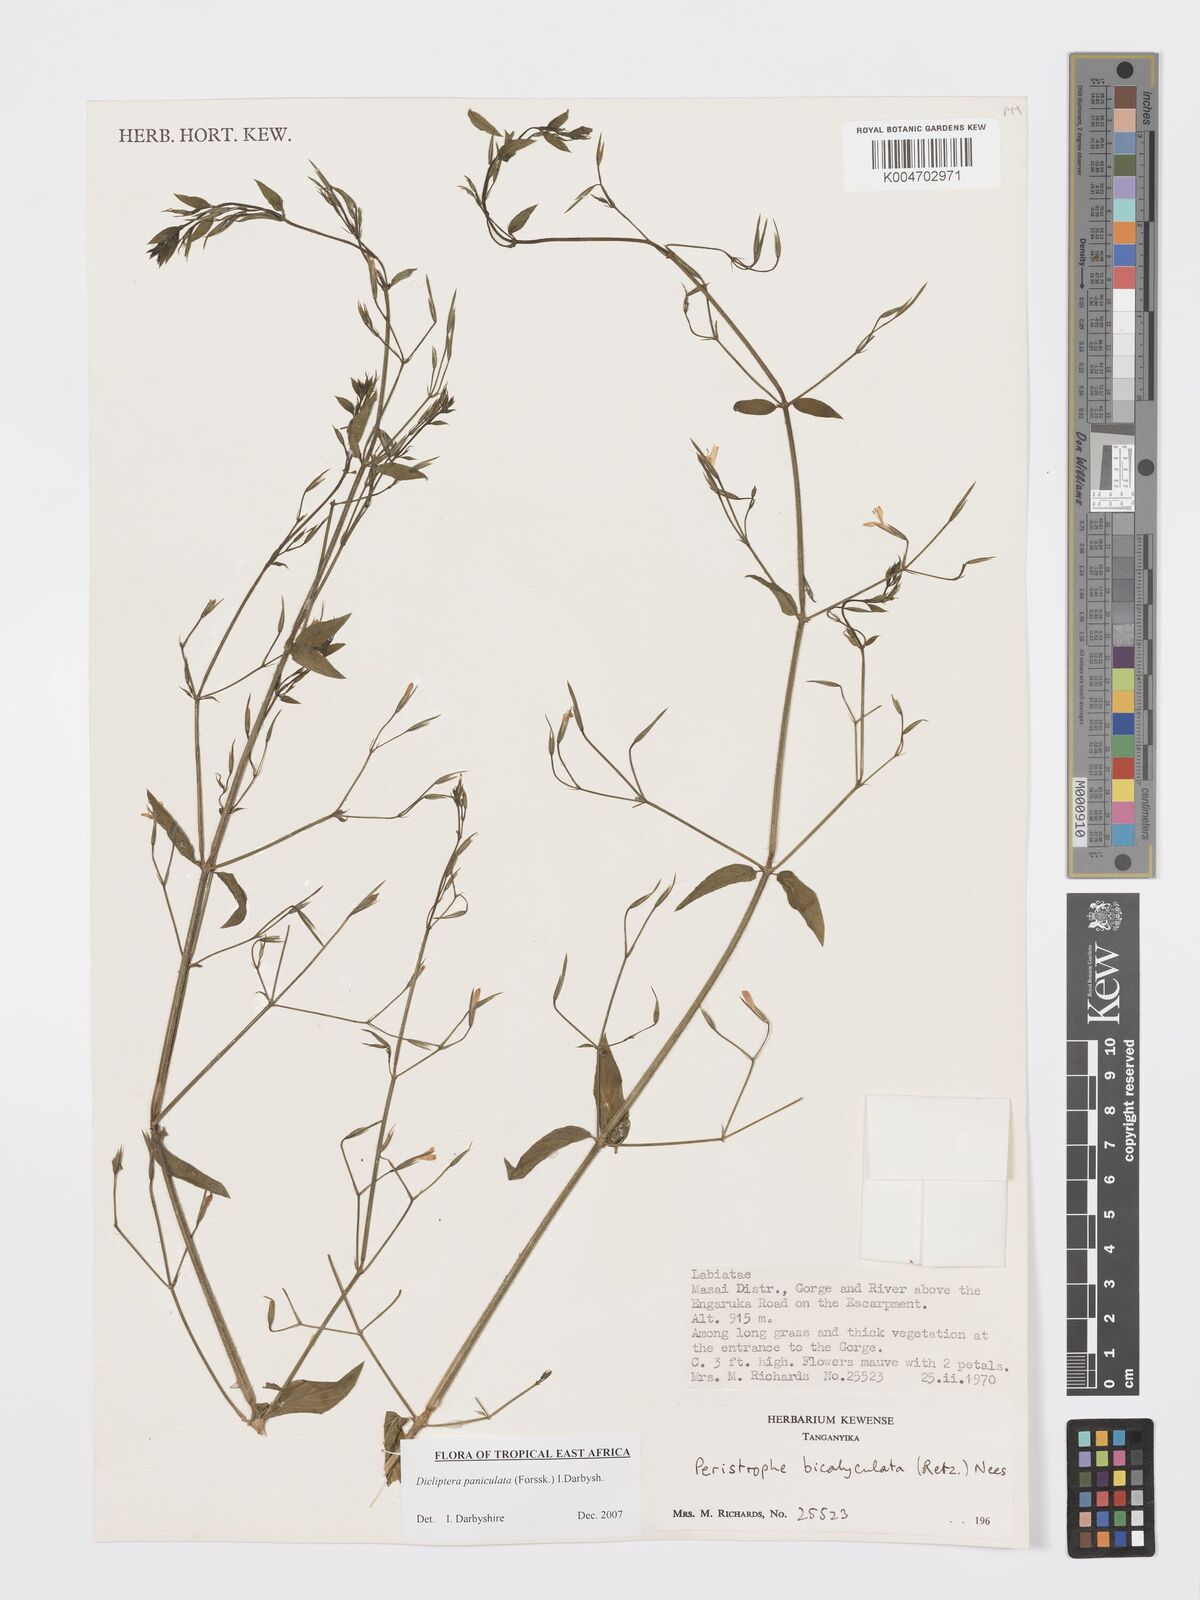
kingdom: Plantae
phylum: Tracheophyta
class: Magnoliopsida
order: Lamiales
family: Acanthaceae
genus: Dicliptera
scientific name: Dicliptera paniculata
